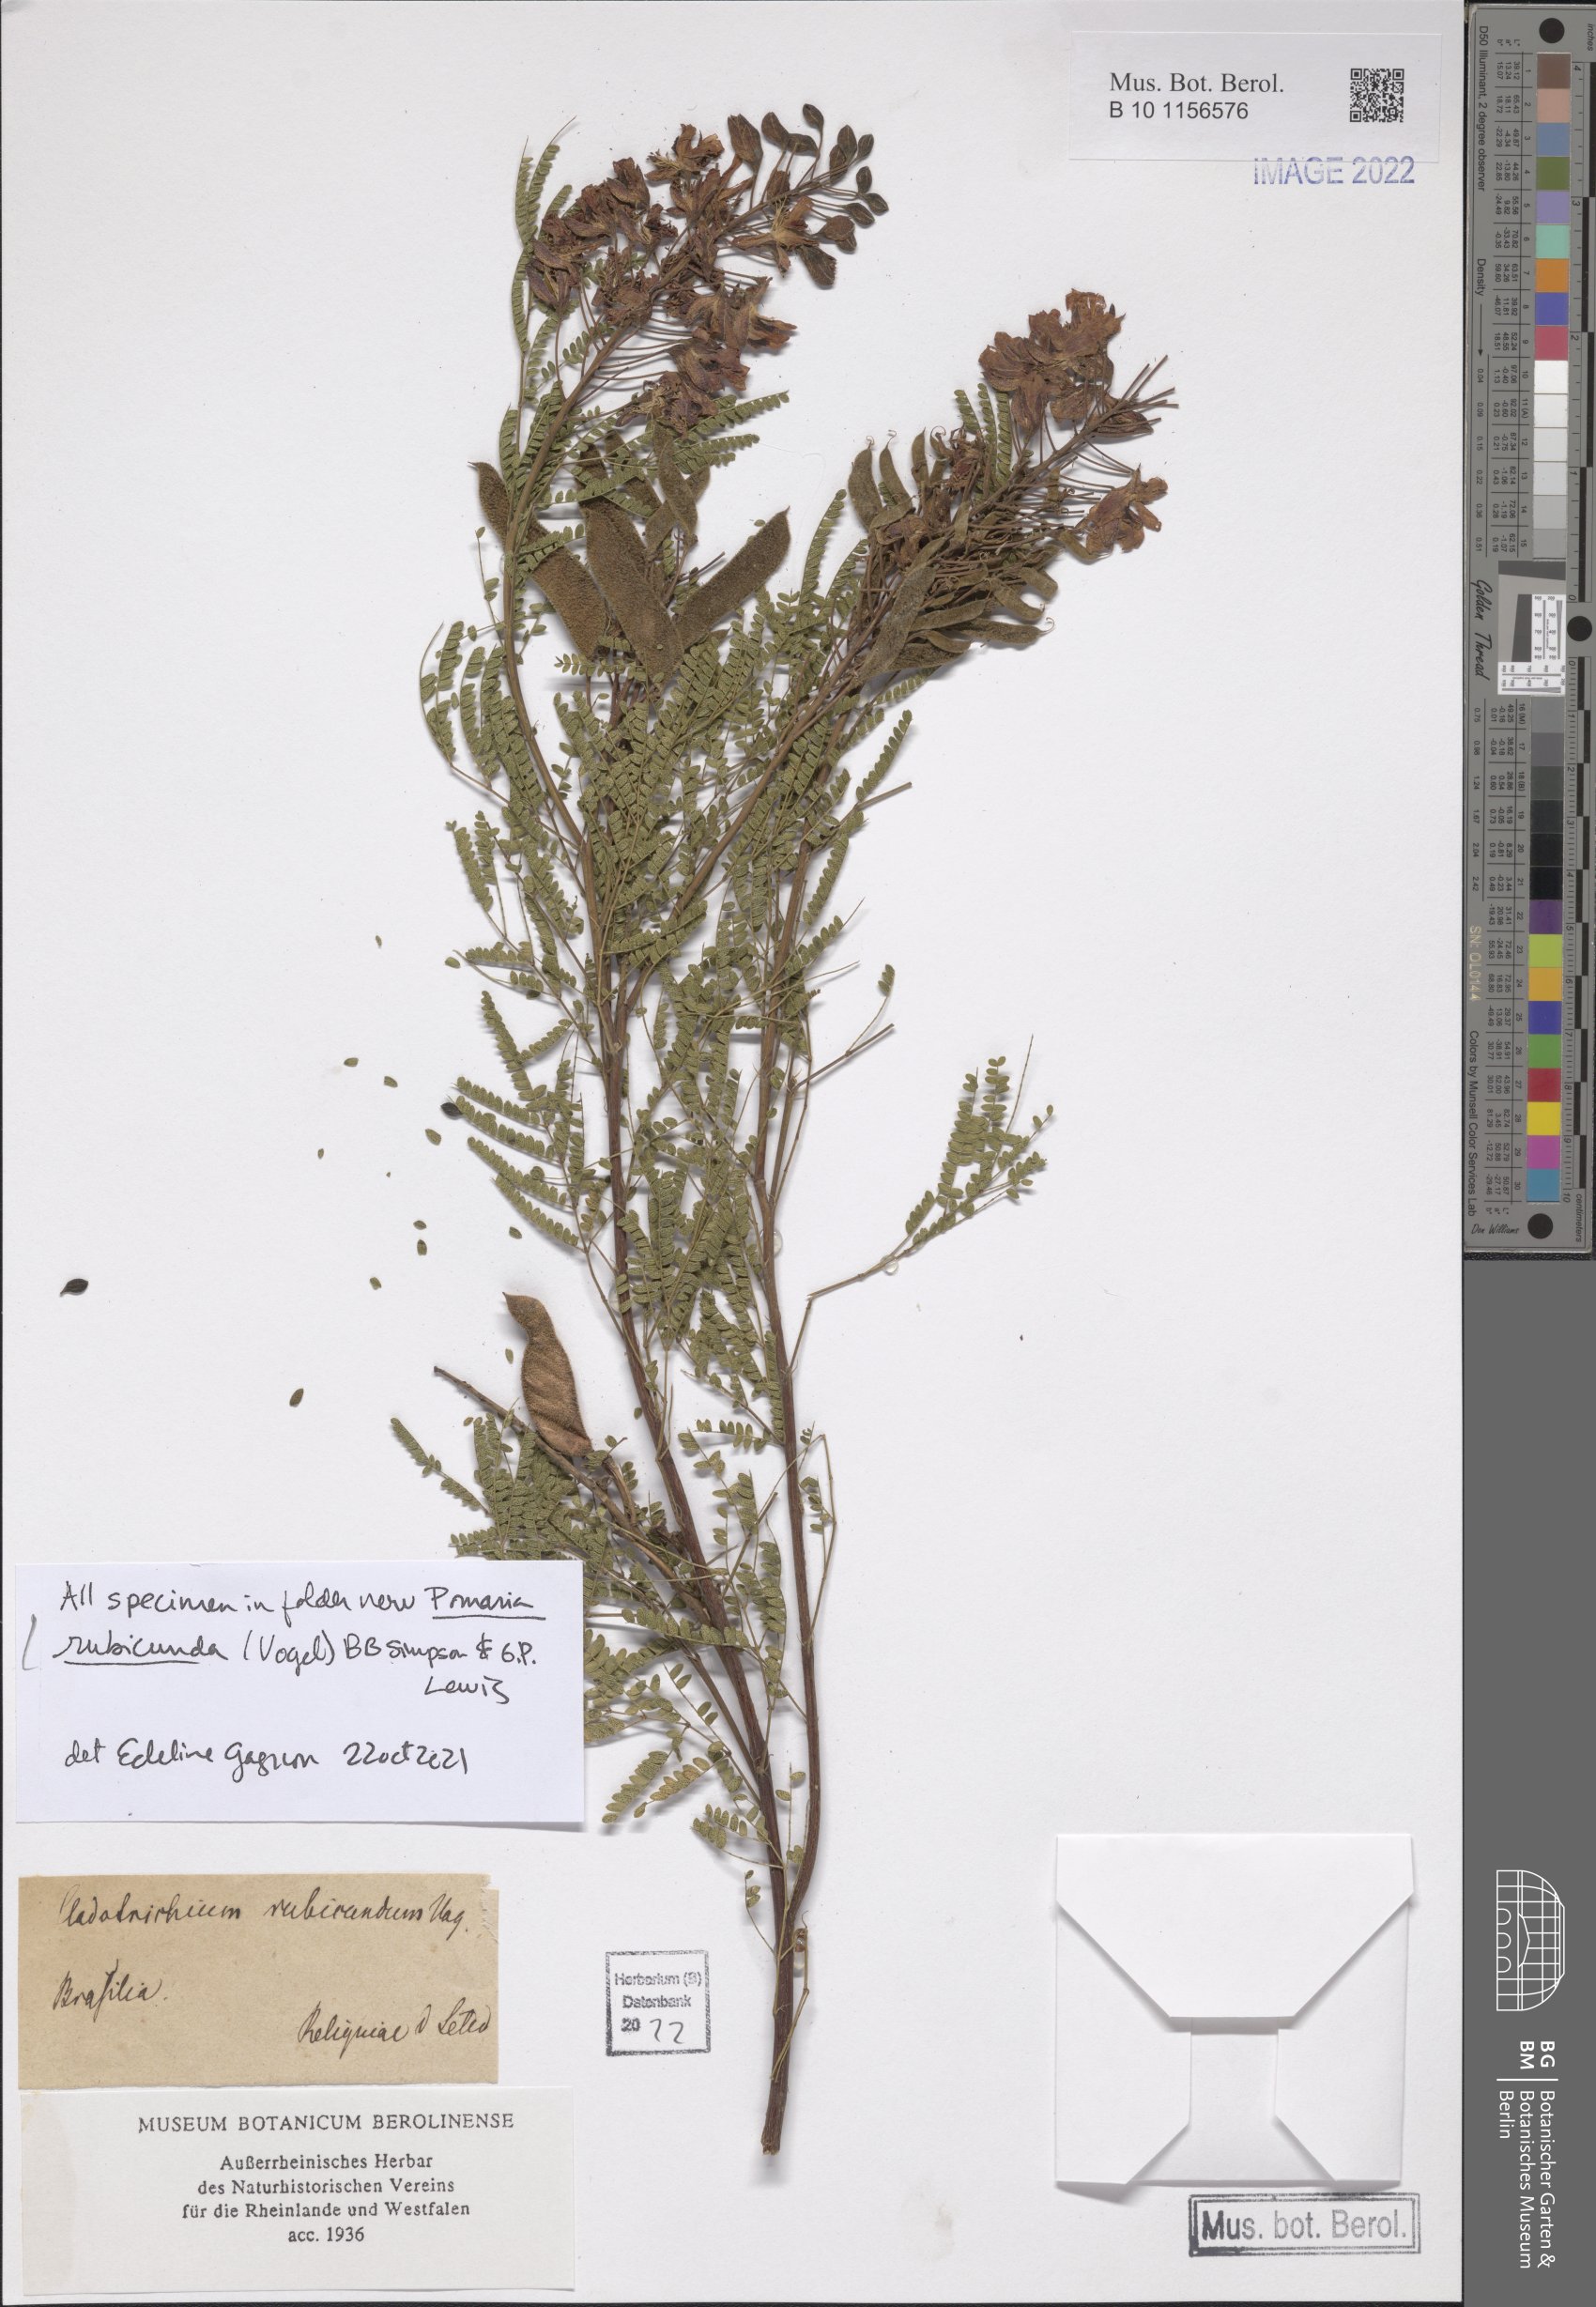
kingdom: Plantae
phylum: Tracheophyta
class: Magnoliopsida
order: Fabales
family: Fabaceae
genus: Pomaria
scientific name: Pomaria rubicunda
